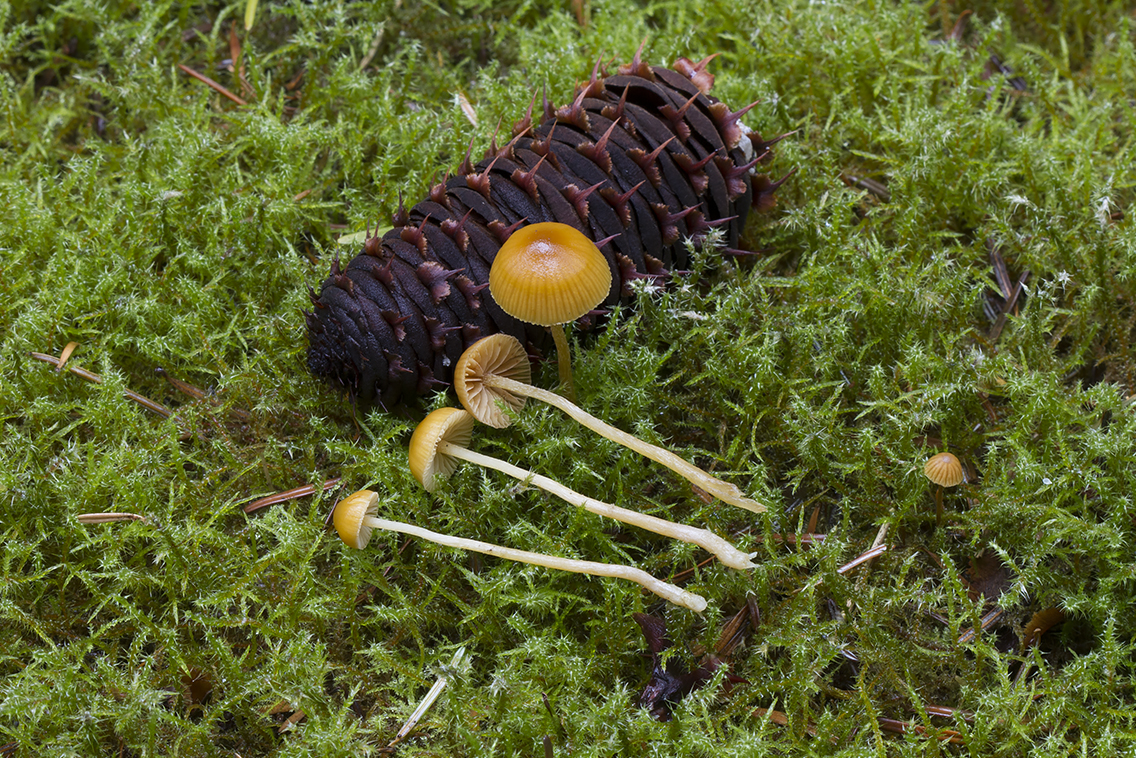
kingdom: Fungi
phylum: Basidiomycota
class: Agaricomycetes
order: Agaricales
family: Hymenogastraceae
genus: Galerina
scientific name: Galerina pumila
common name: honninggul hjelmhat
